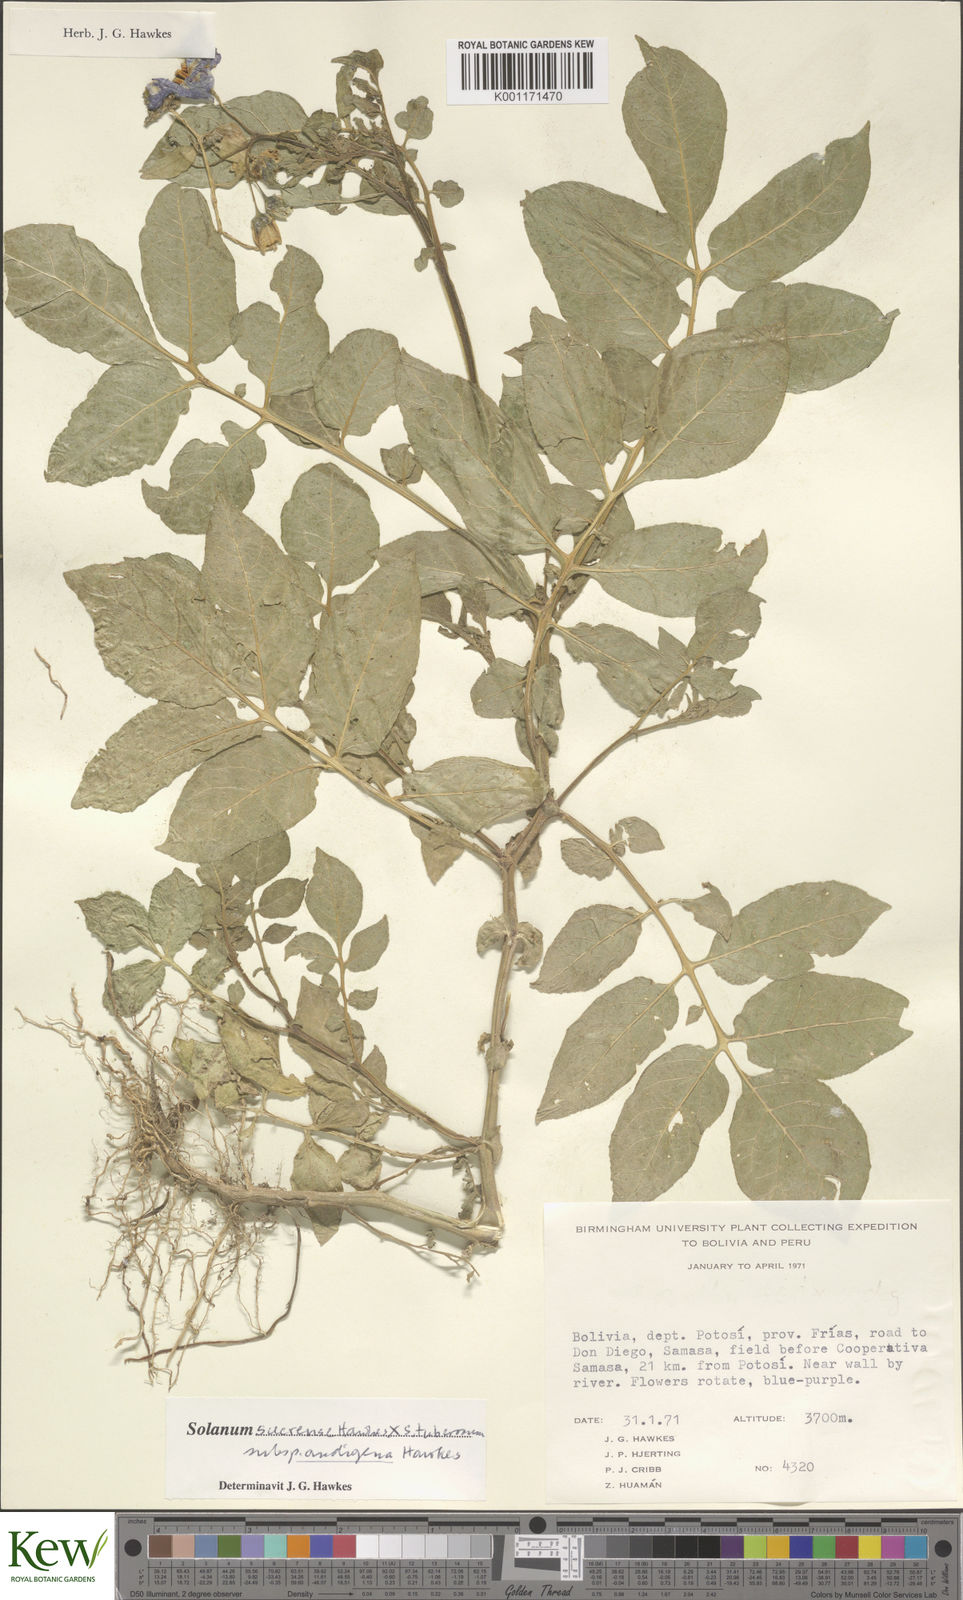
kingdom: Plantae
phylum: Tracheophyta
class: Magnoliopsida
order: Solanales
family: Solanaceae
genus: Solanum
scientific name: Solanum tuberosum
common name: Potato
